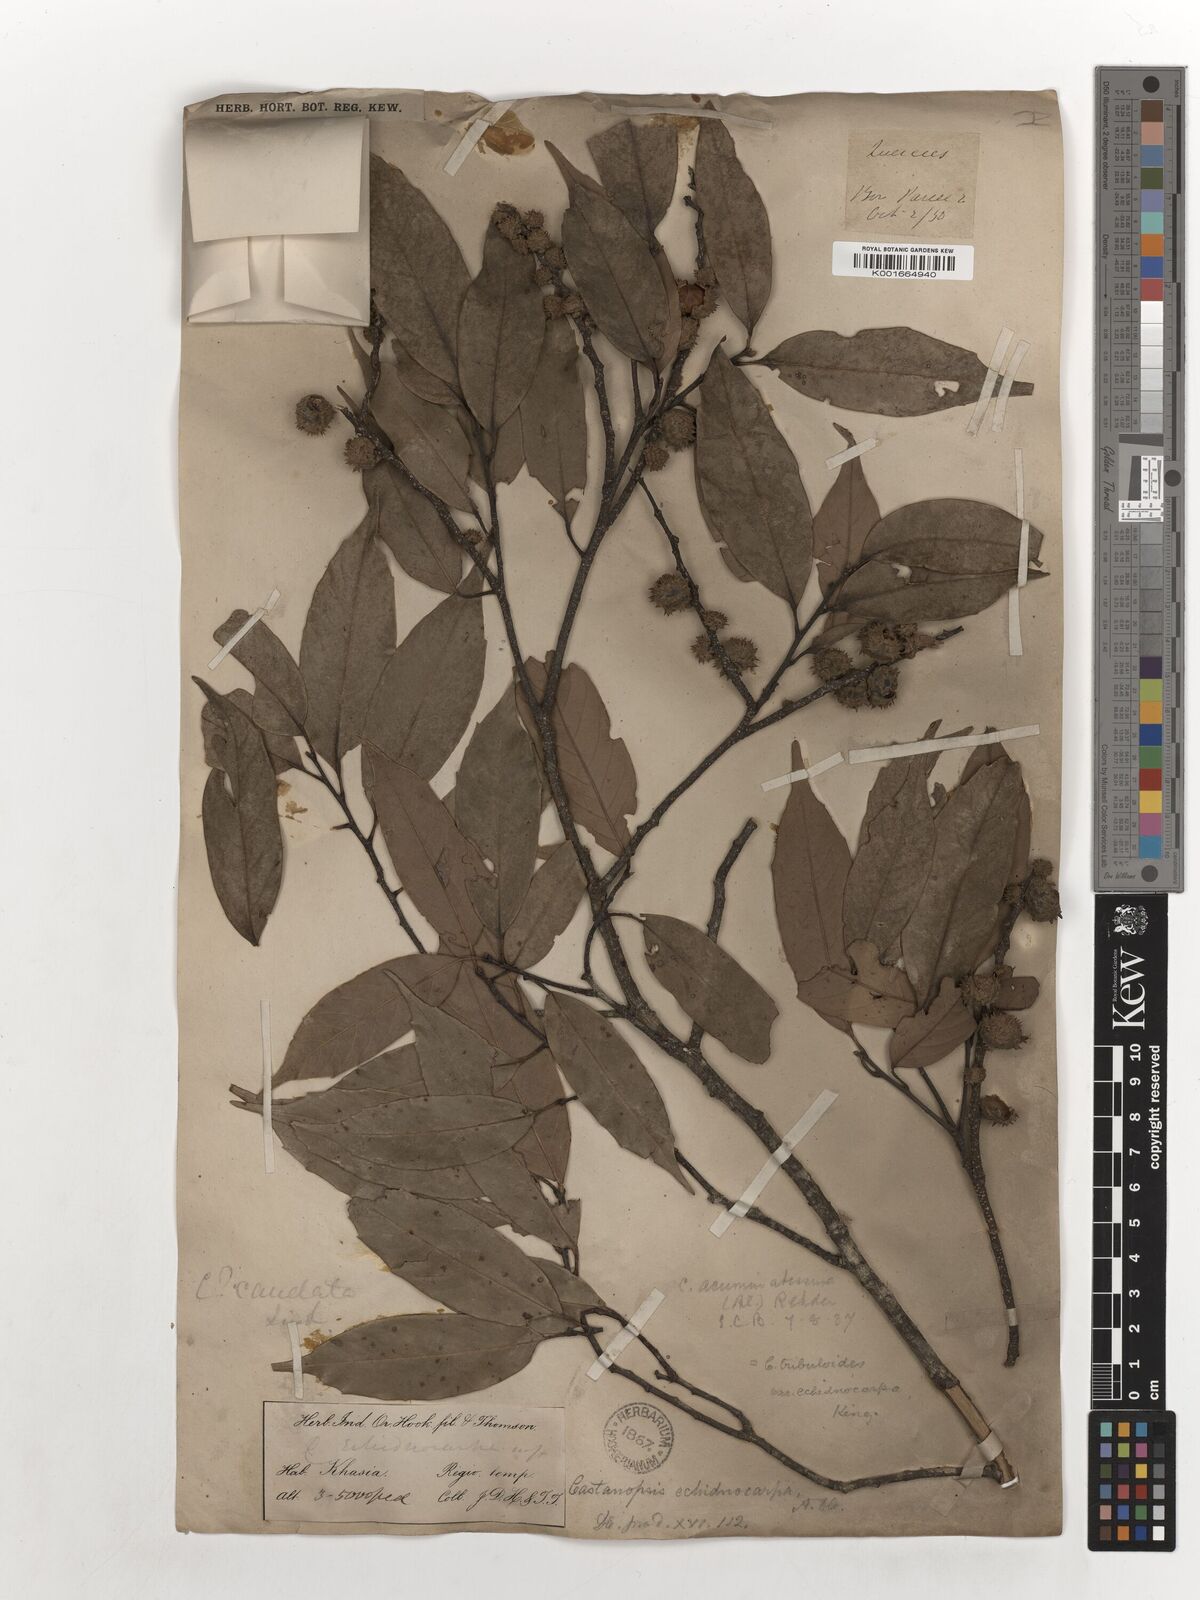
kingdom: Plantae
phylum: Tracheophyta
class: Magnoliopsida
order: Fagales
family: Fagaceae
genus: Castanopsis
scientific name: Castanopsis echinocarpa
